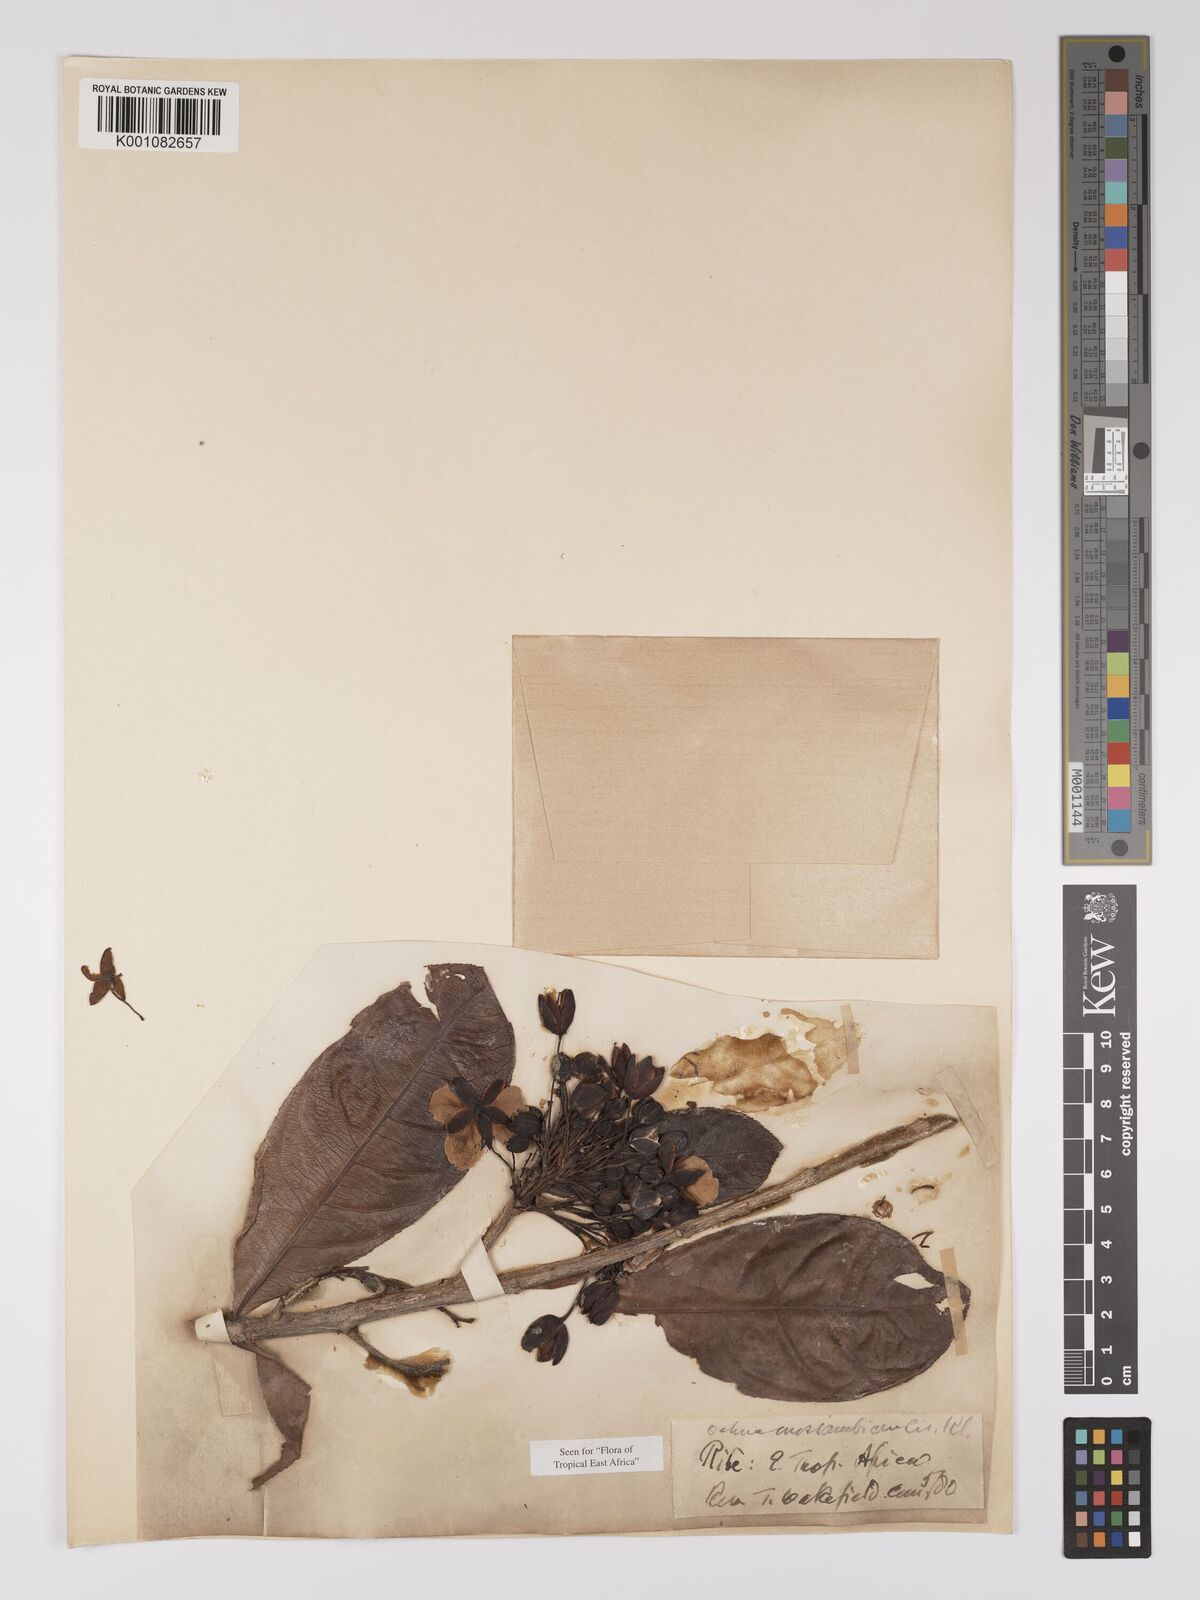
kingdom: Plantae
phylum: Tracheophyta
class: Magnoliopsida
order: Malpighiales
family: Ochnaceae
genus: Ochna
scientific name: Ochna atropurpurea
